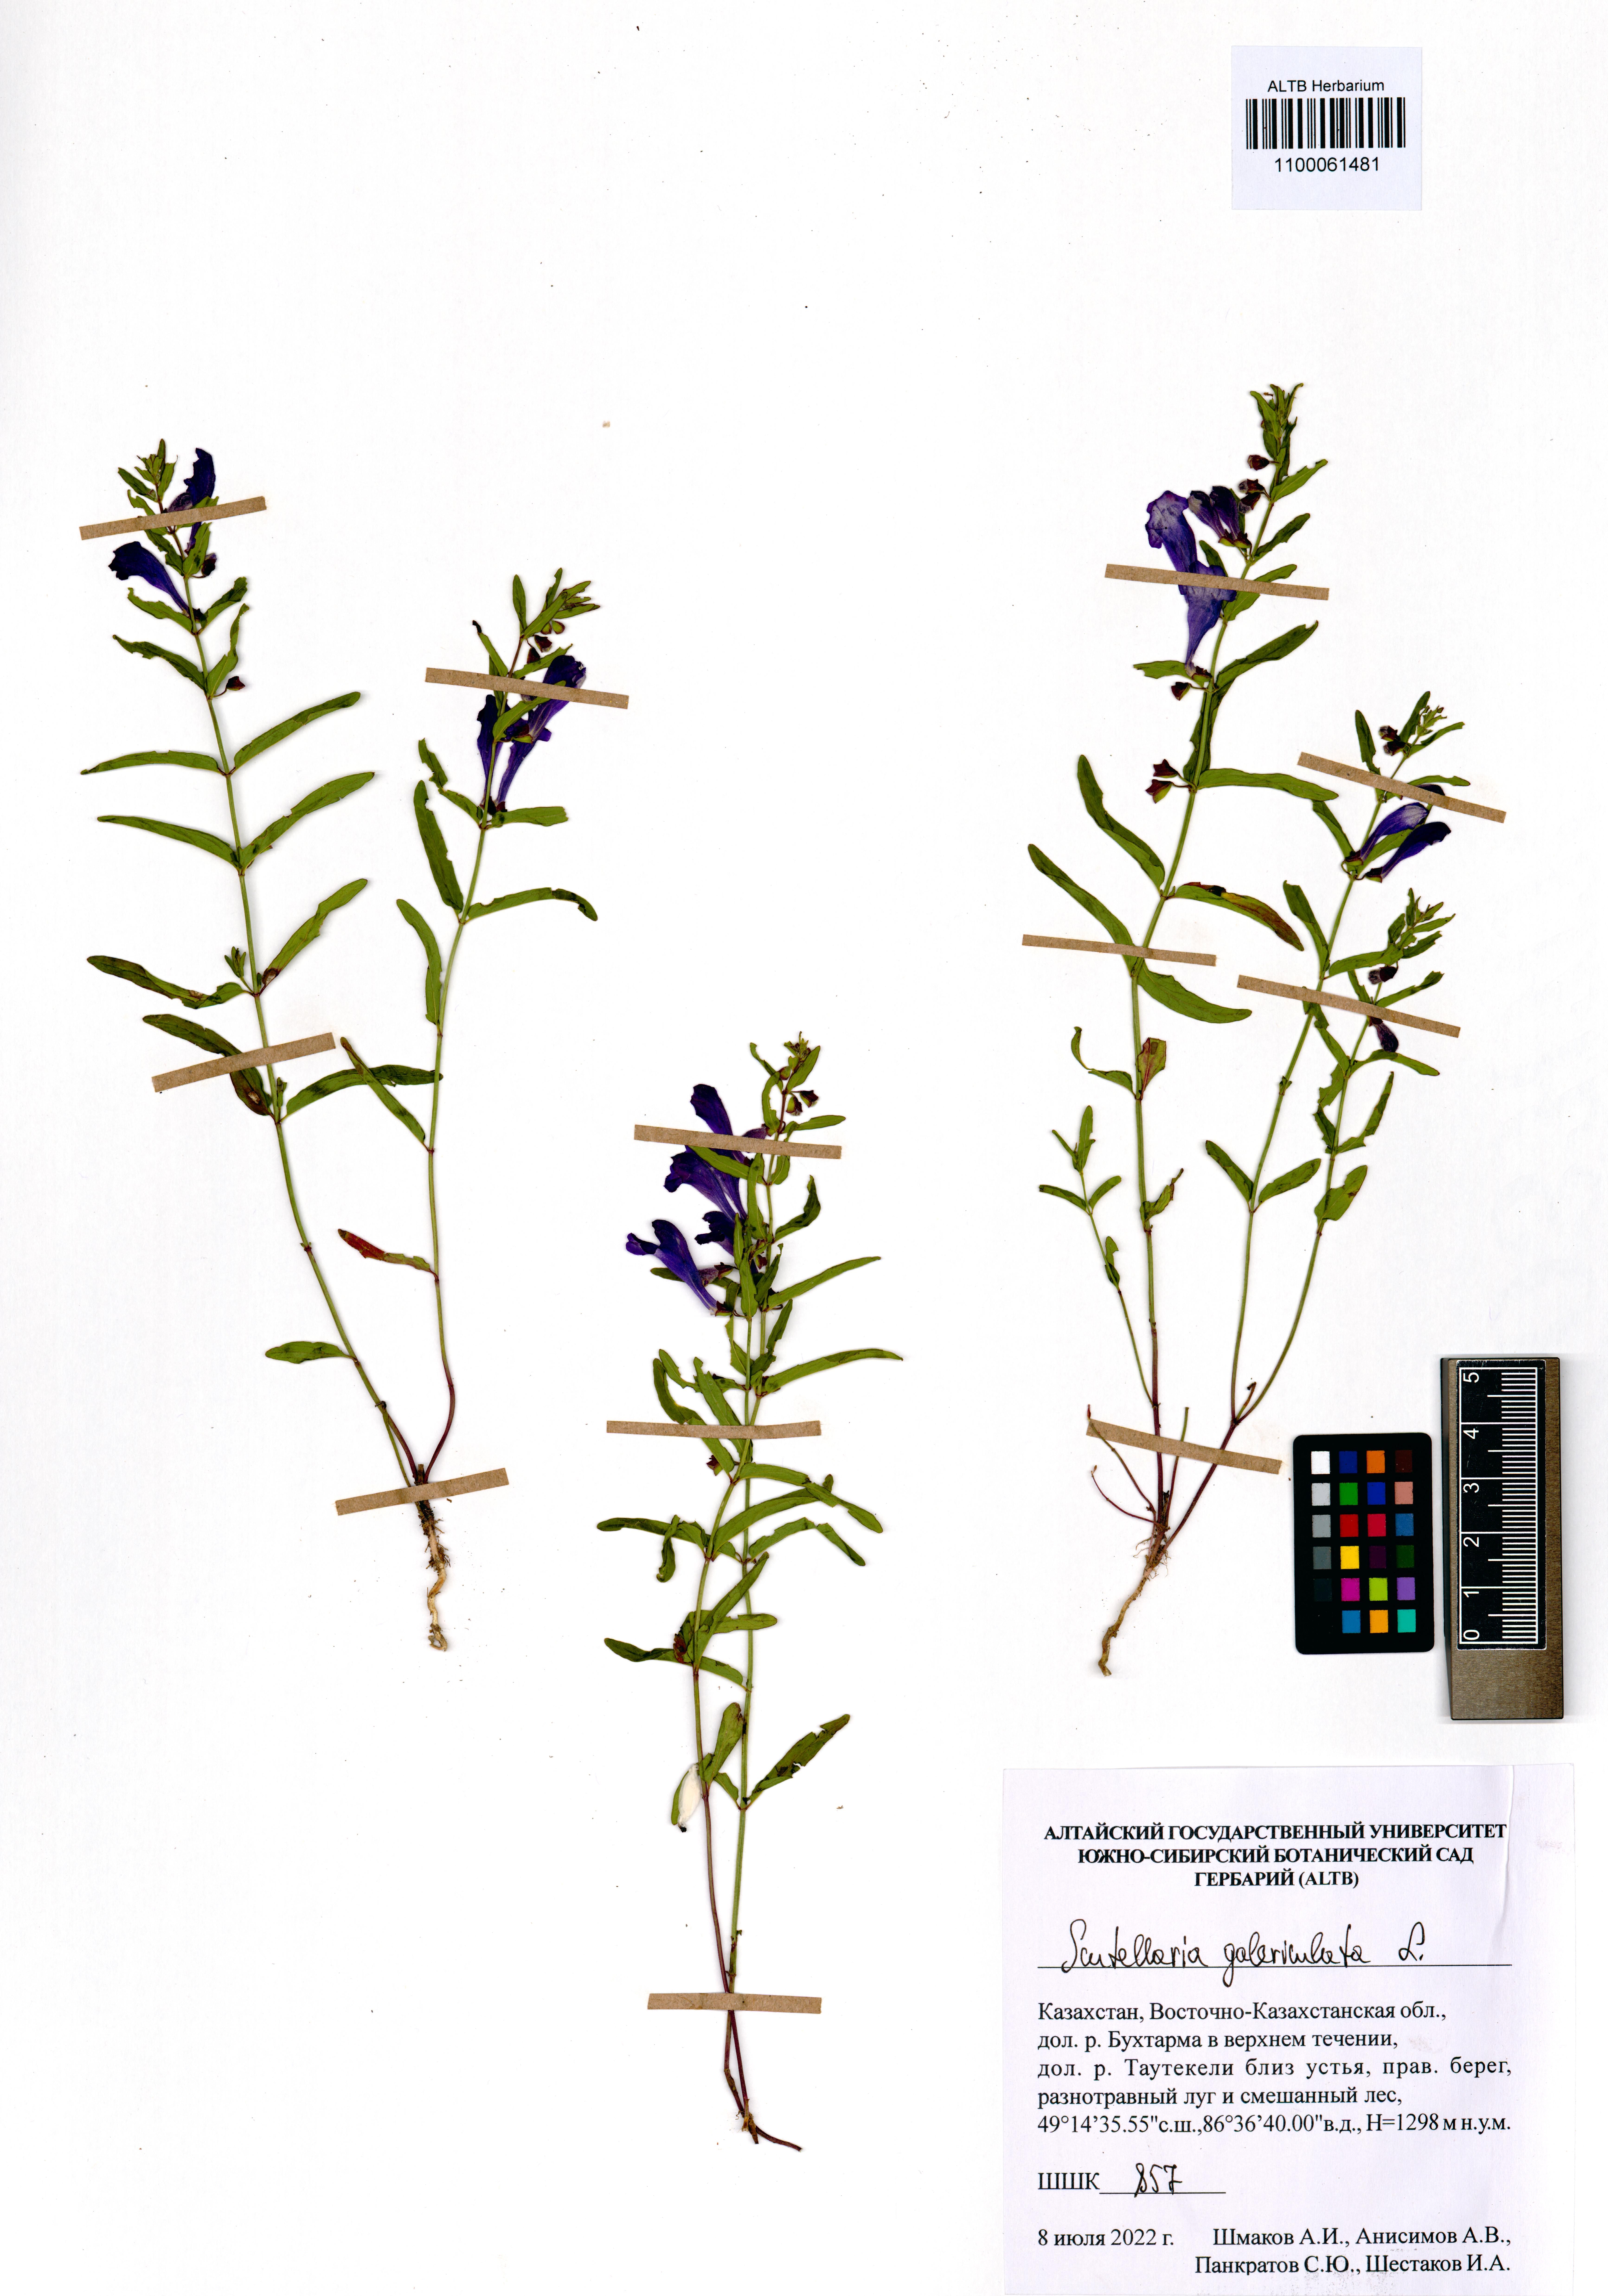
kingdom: Plantae
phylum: Tracheophyta
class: Magnoliopsida
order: Lamiales
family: Lamiaceae
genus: Scutellaria
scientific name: Scutellaria galericulata
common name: Skullcap
